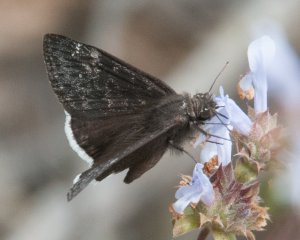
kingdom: Animalia
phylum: Arthropoda
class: Insecta
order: Lepidoptera
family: Hesperiidae
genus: Erynnis
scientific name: Erynnis funeralis
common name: Funereal Duskywing
